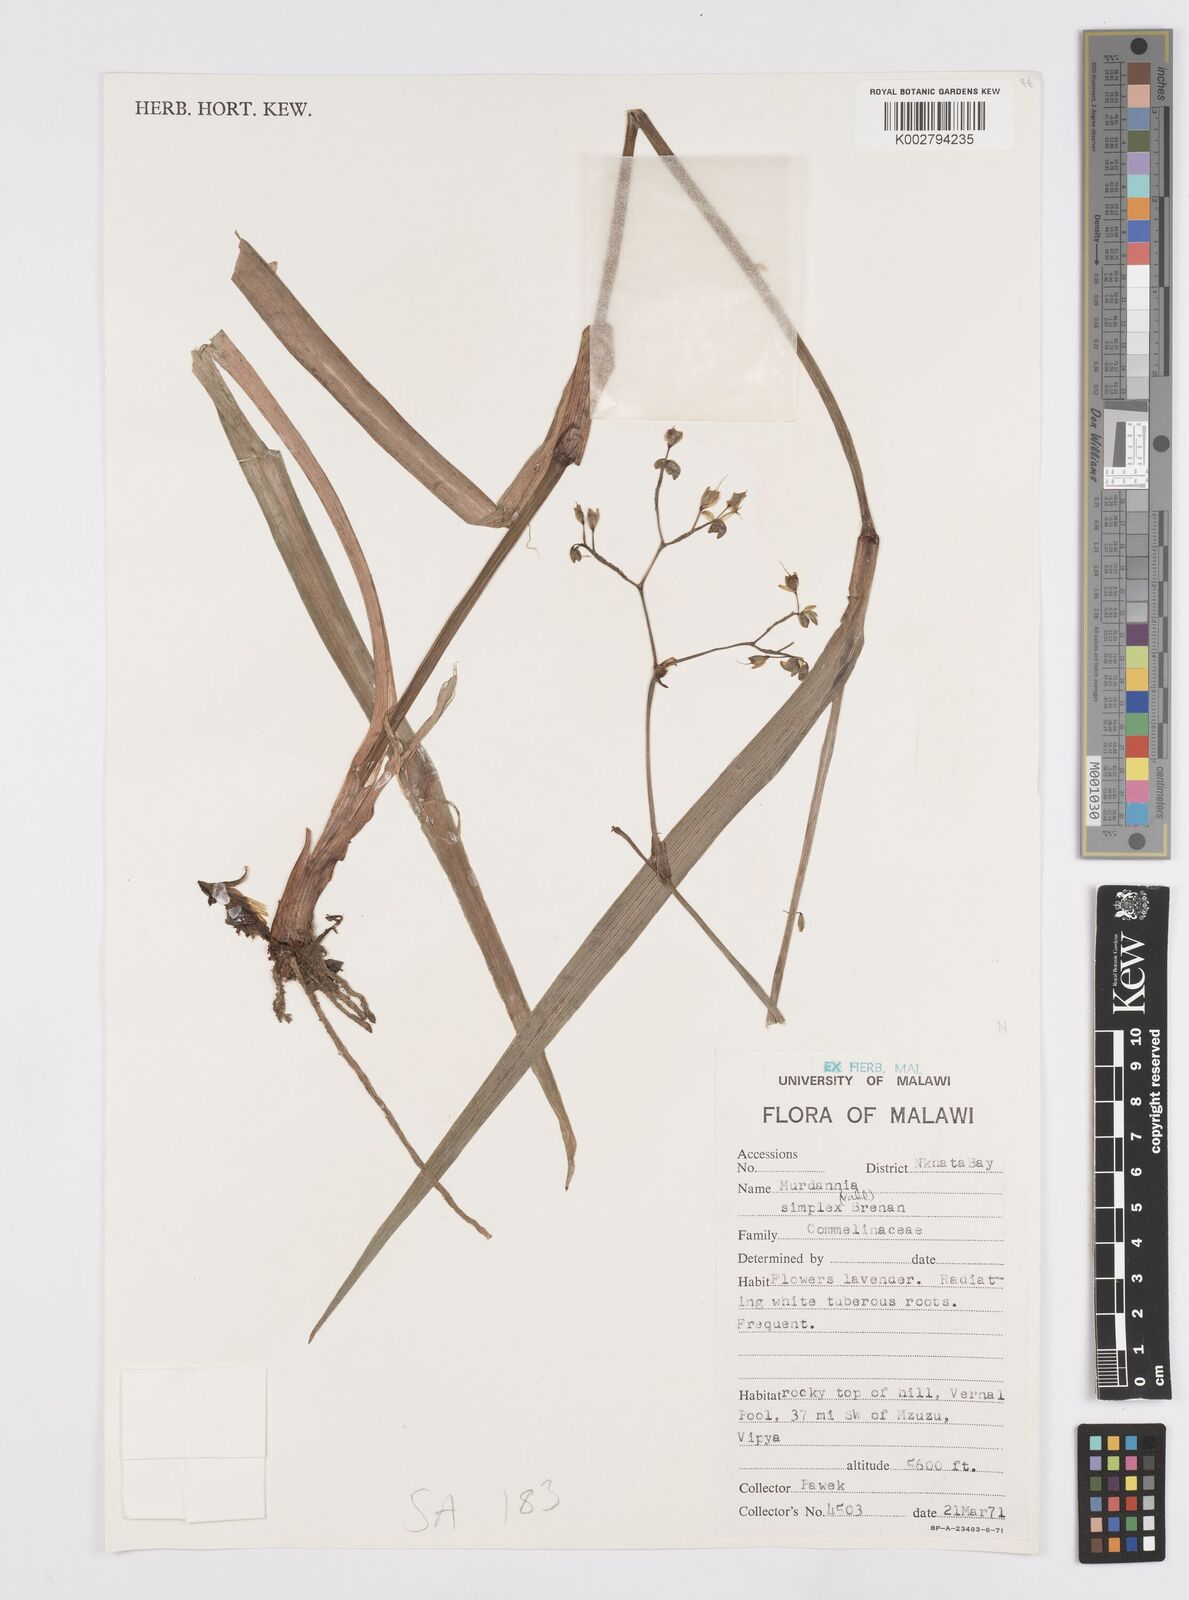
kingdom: Plantae
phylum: Tracheophyta
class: Liliopsida
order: Commelinales
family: Commelinaceae
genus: Murdannia
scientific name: Murdannia simplex
